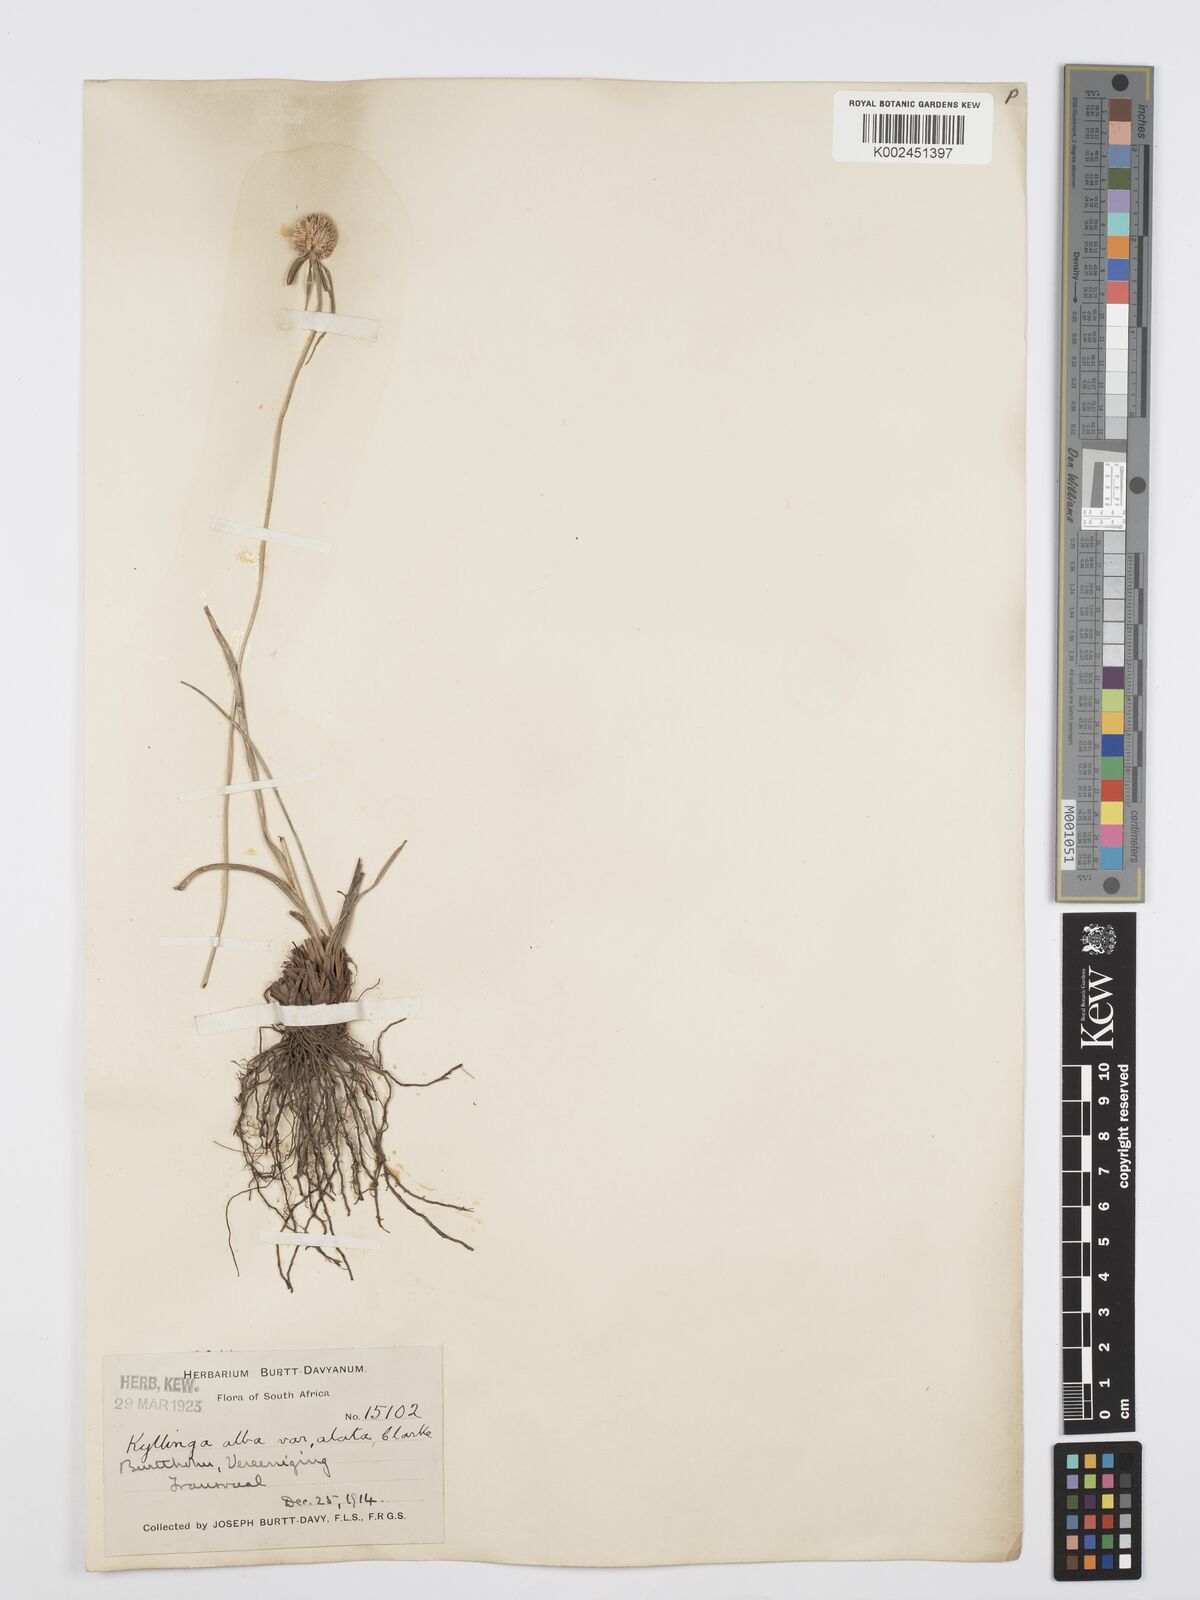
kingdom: Plantae
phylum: Tracheophyta
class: Liliopsida
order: Poales
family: Cyperaceae
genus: Cyperus
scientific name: Cyperus alatus
